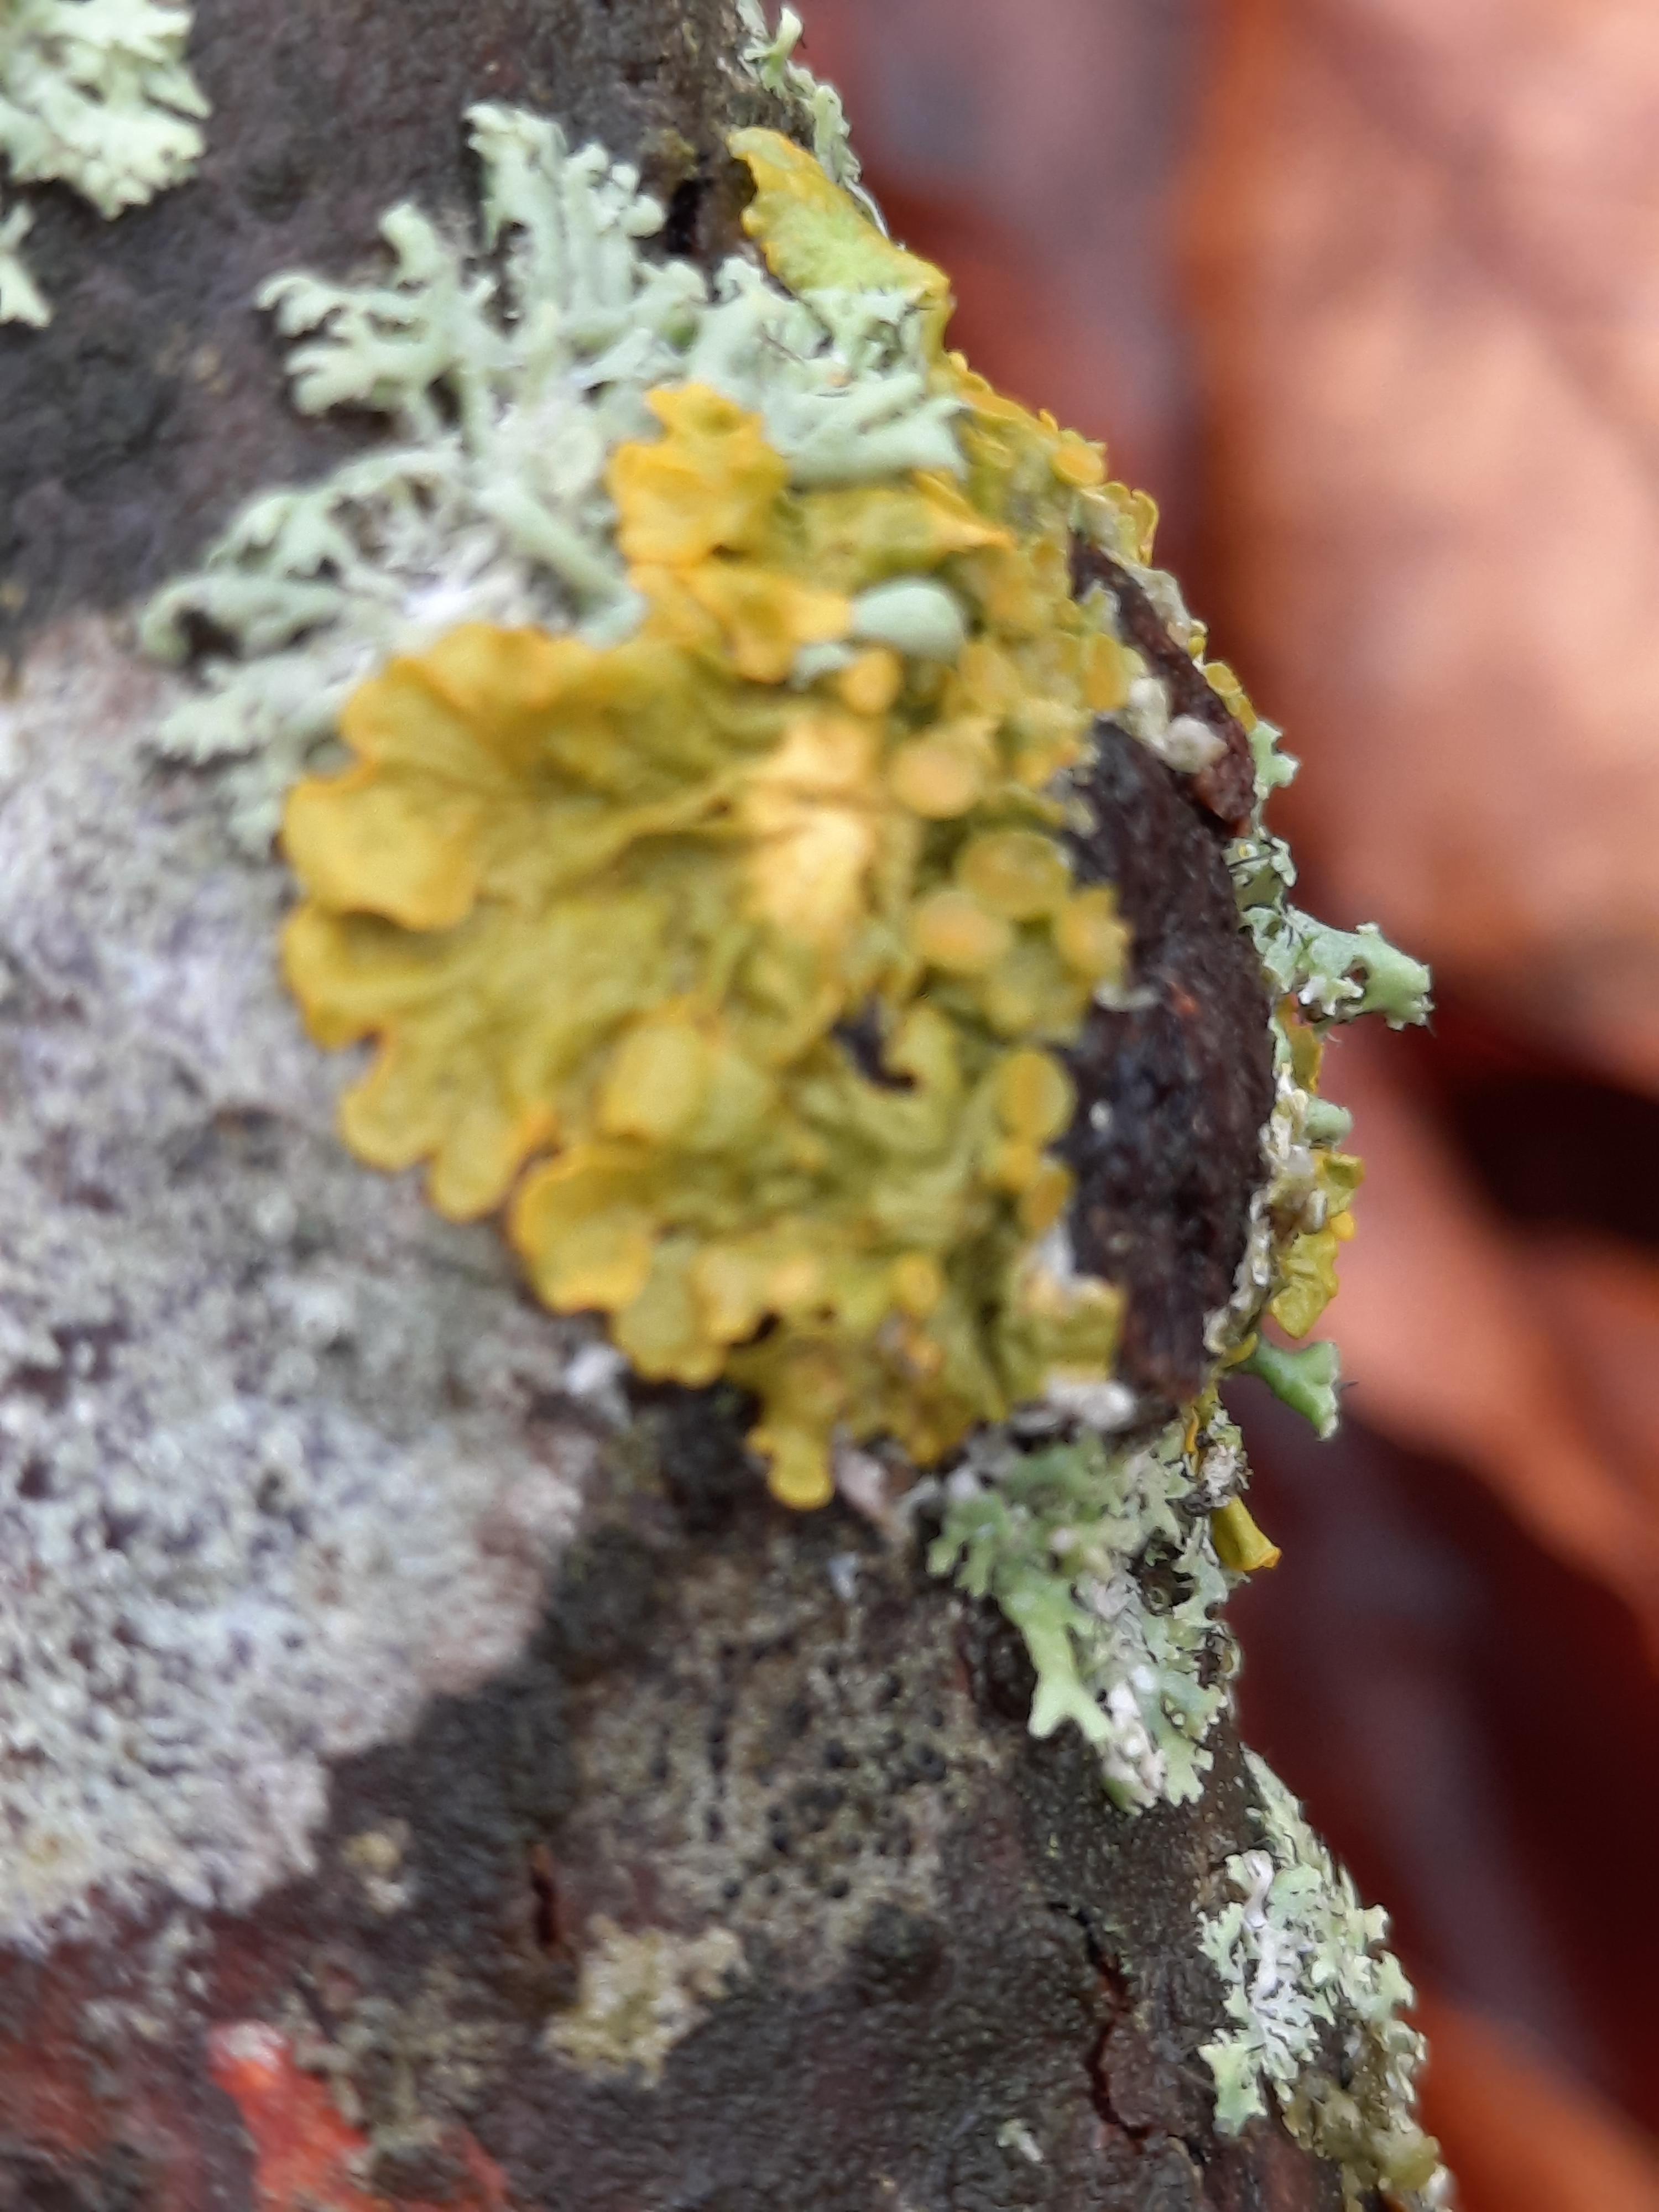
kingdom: Fungi
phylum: Ascomycota
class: Lecanoromycetes
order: Teloschistales
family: Teloschistaceae
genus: Xanthoria
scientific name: Xanthoria parietina
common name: almindelig væggelav
